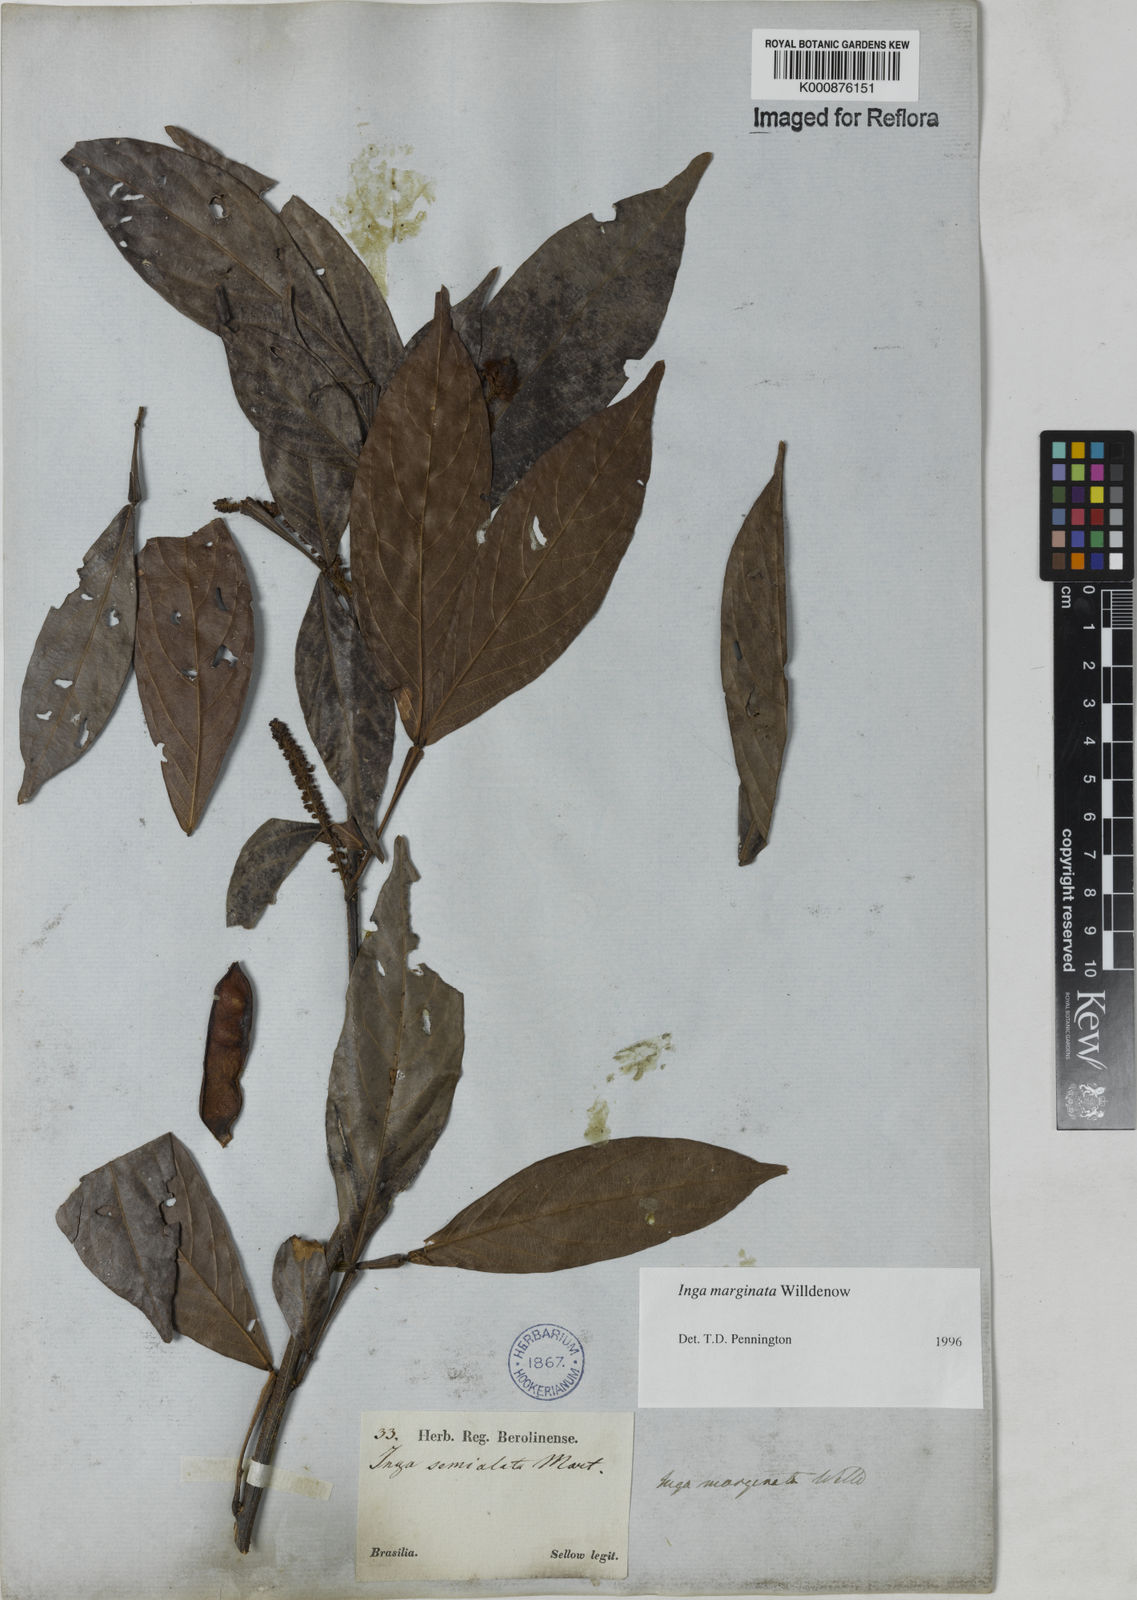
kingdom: Plantae
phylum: Tracheophyta
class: Magnoliopsida
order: Fabales
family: Fabaceae
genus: Inga
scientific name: Inga marginata
